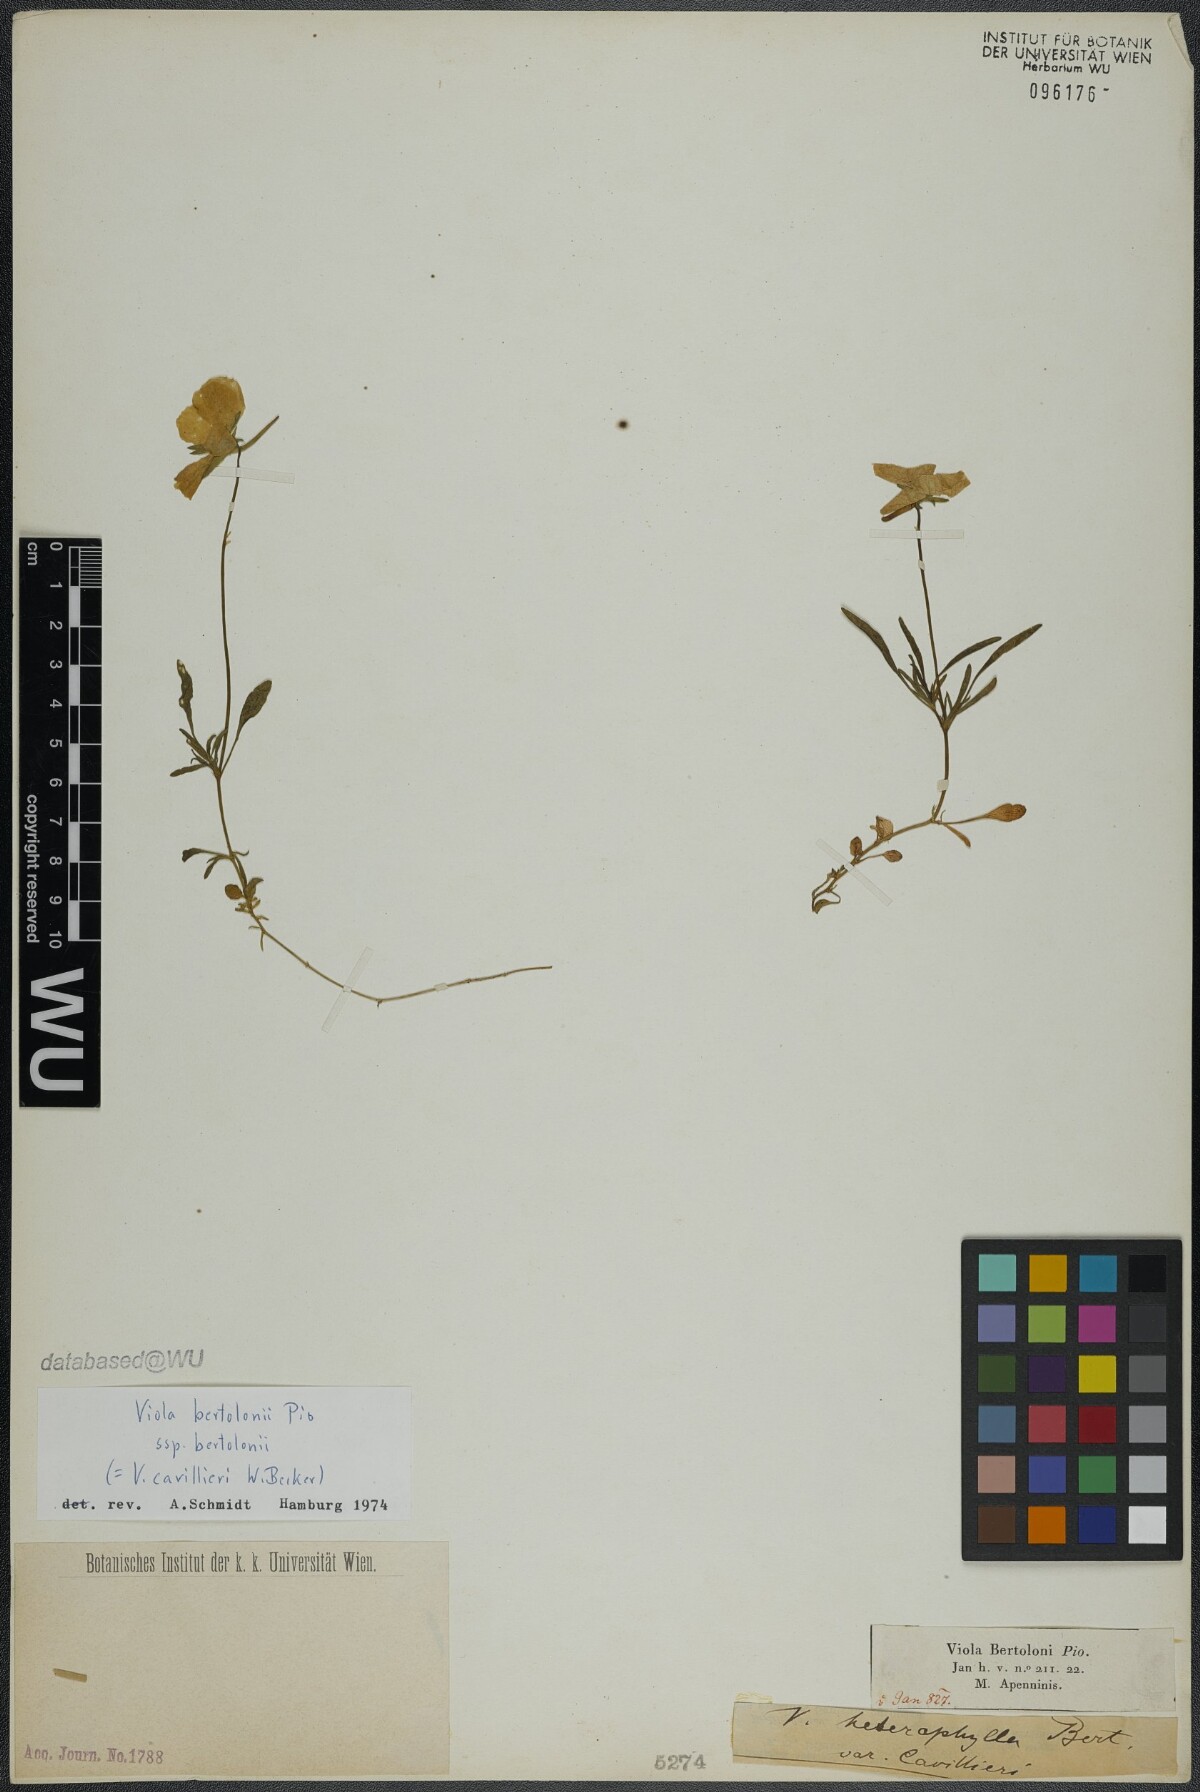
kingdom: Plantae
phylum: Tracheophyta
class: Magnoliopsida
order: Malpighiales
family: Violaceae
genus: Viola
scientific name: Viola bertolonii
